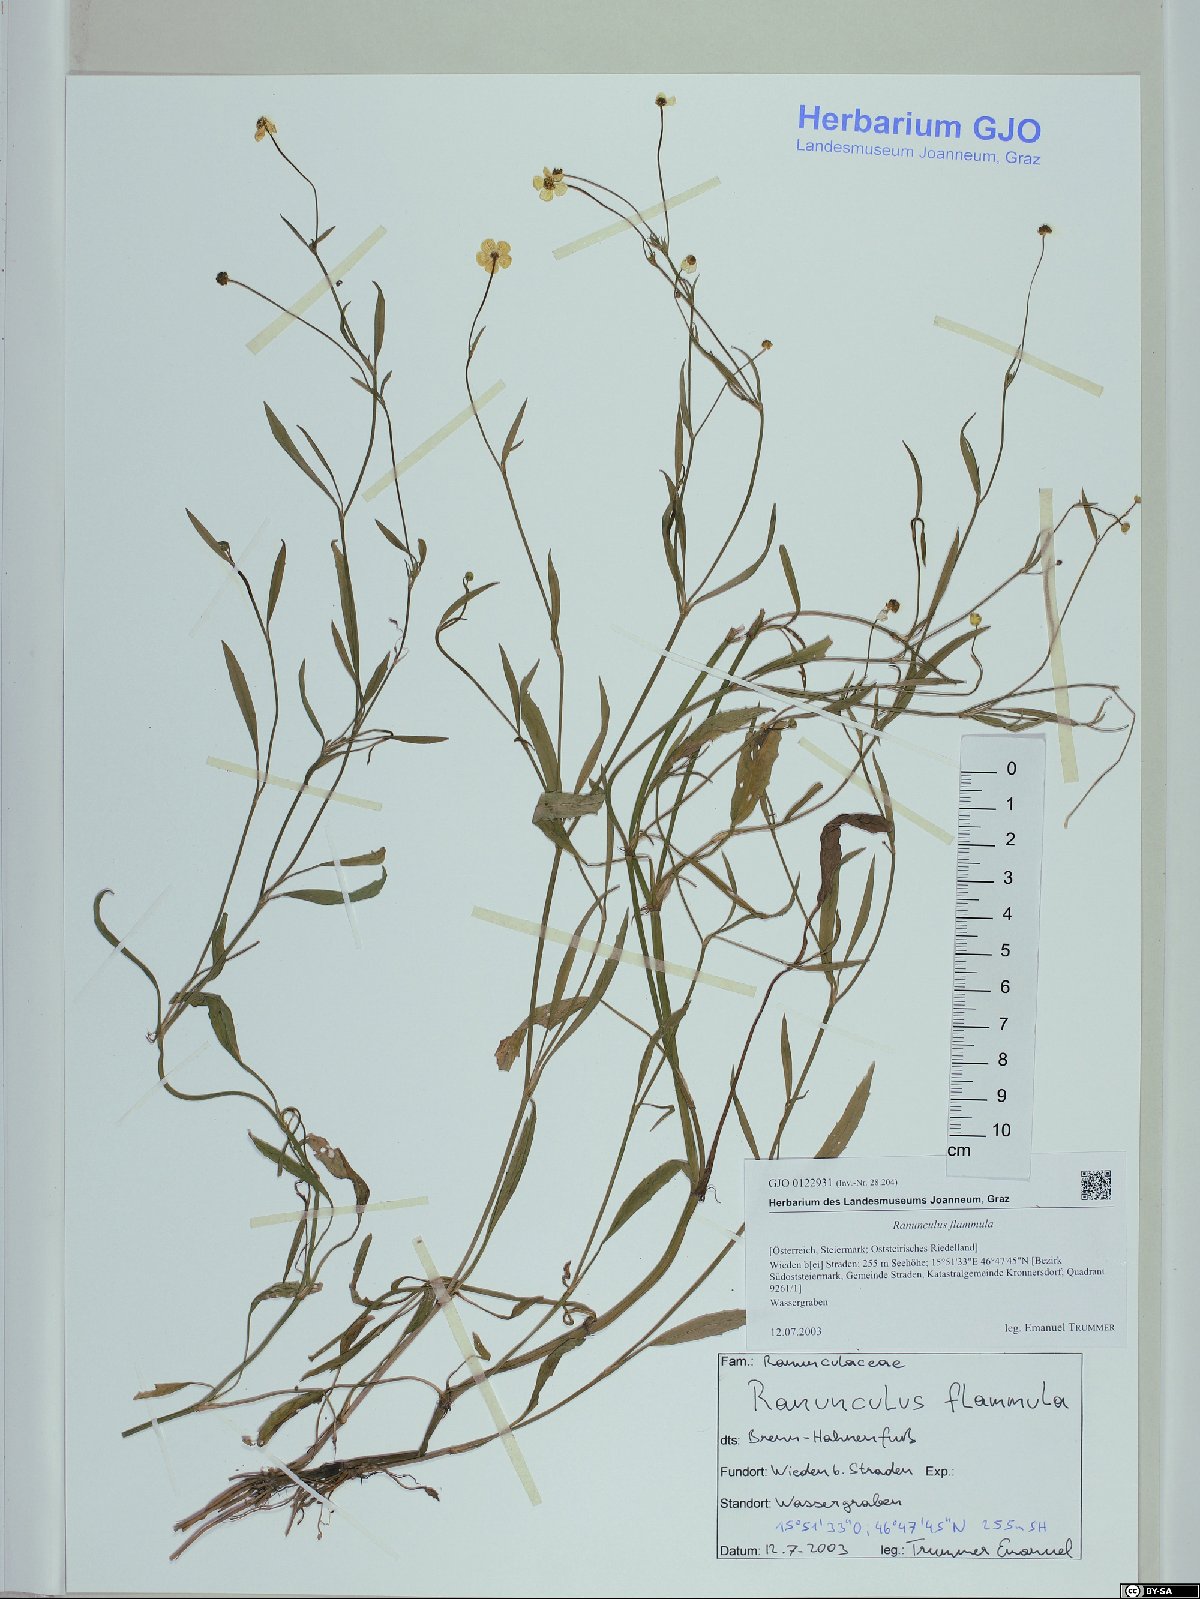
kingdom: Plantae
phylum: Tracheophyta
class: Magnoliopsida
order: Ranunculales
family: Ranunculaceae
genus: Ranunculus
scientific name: Ranunculus flammula
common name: Lesser spearwort
